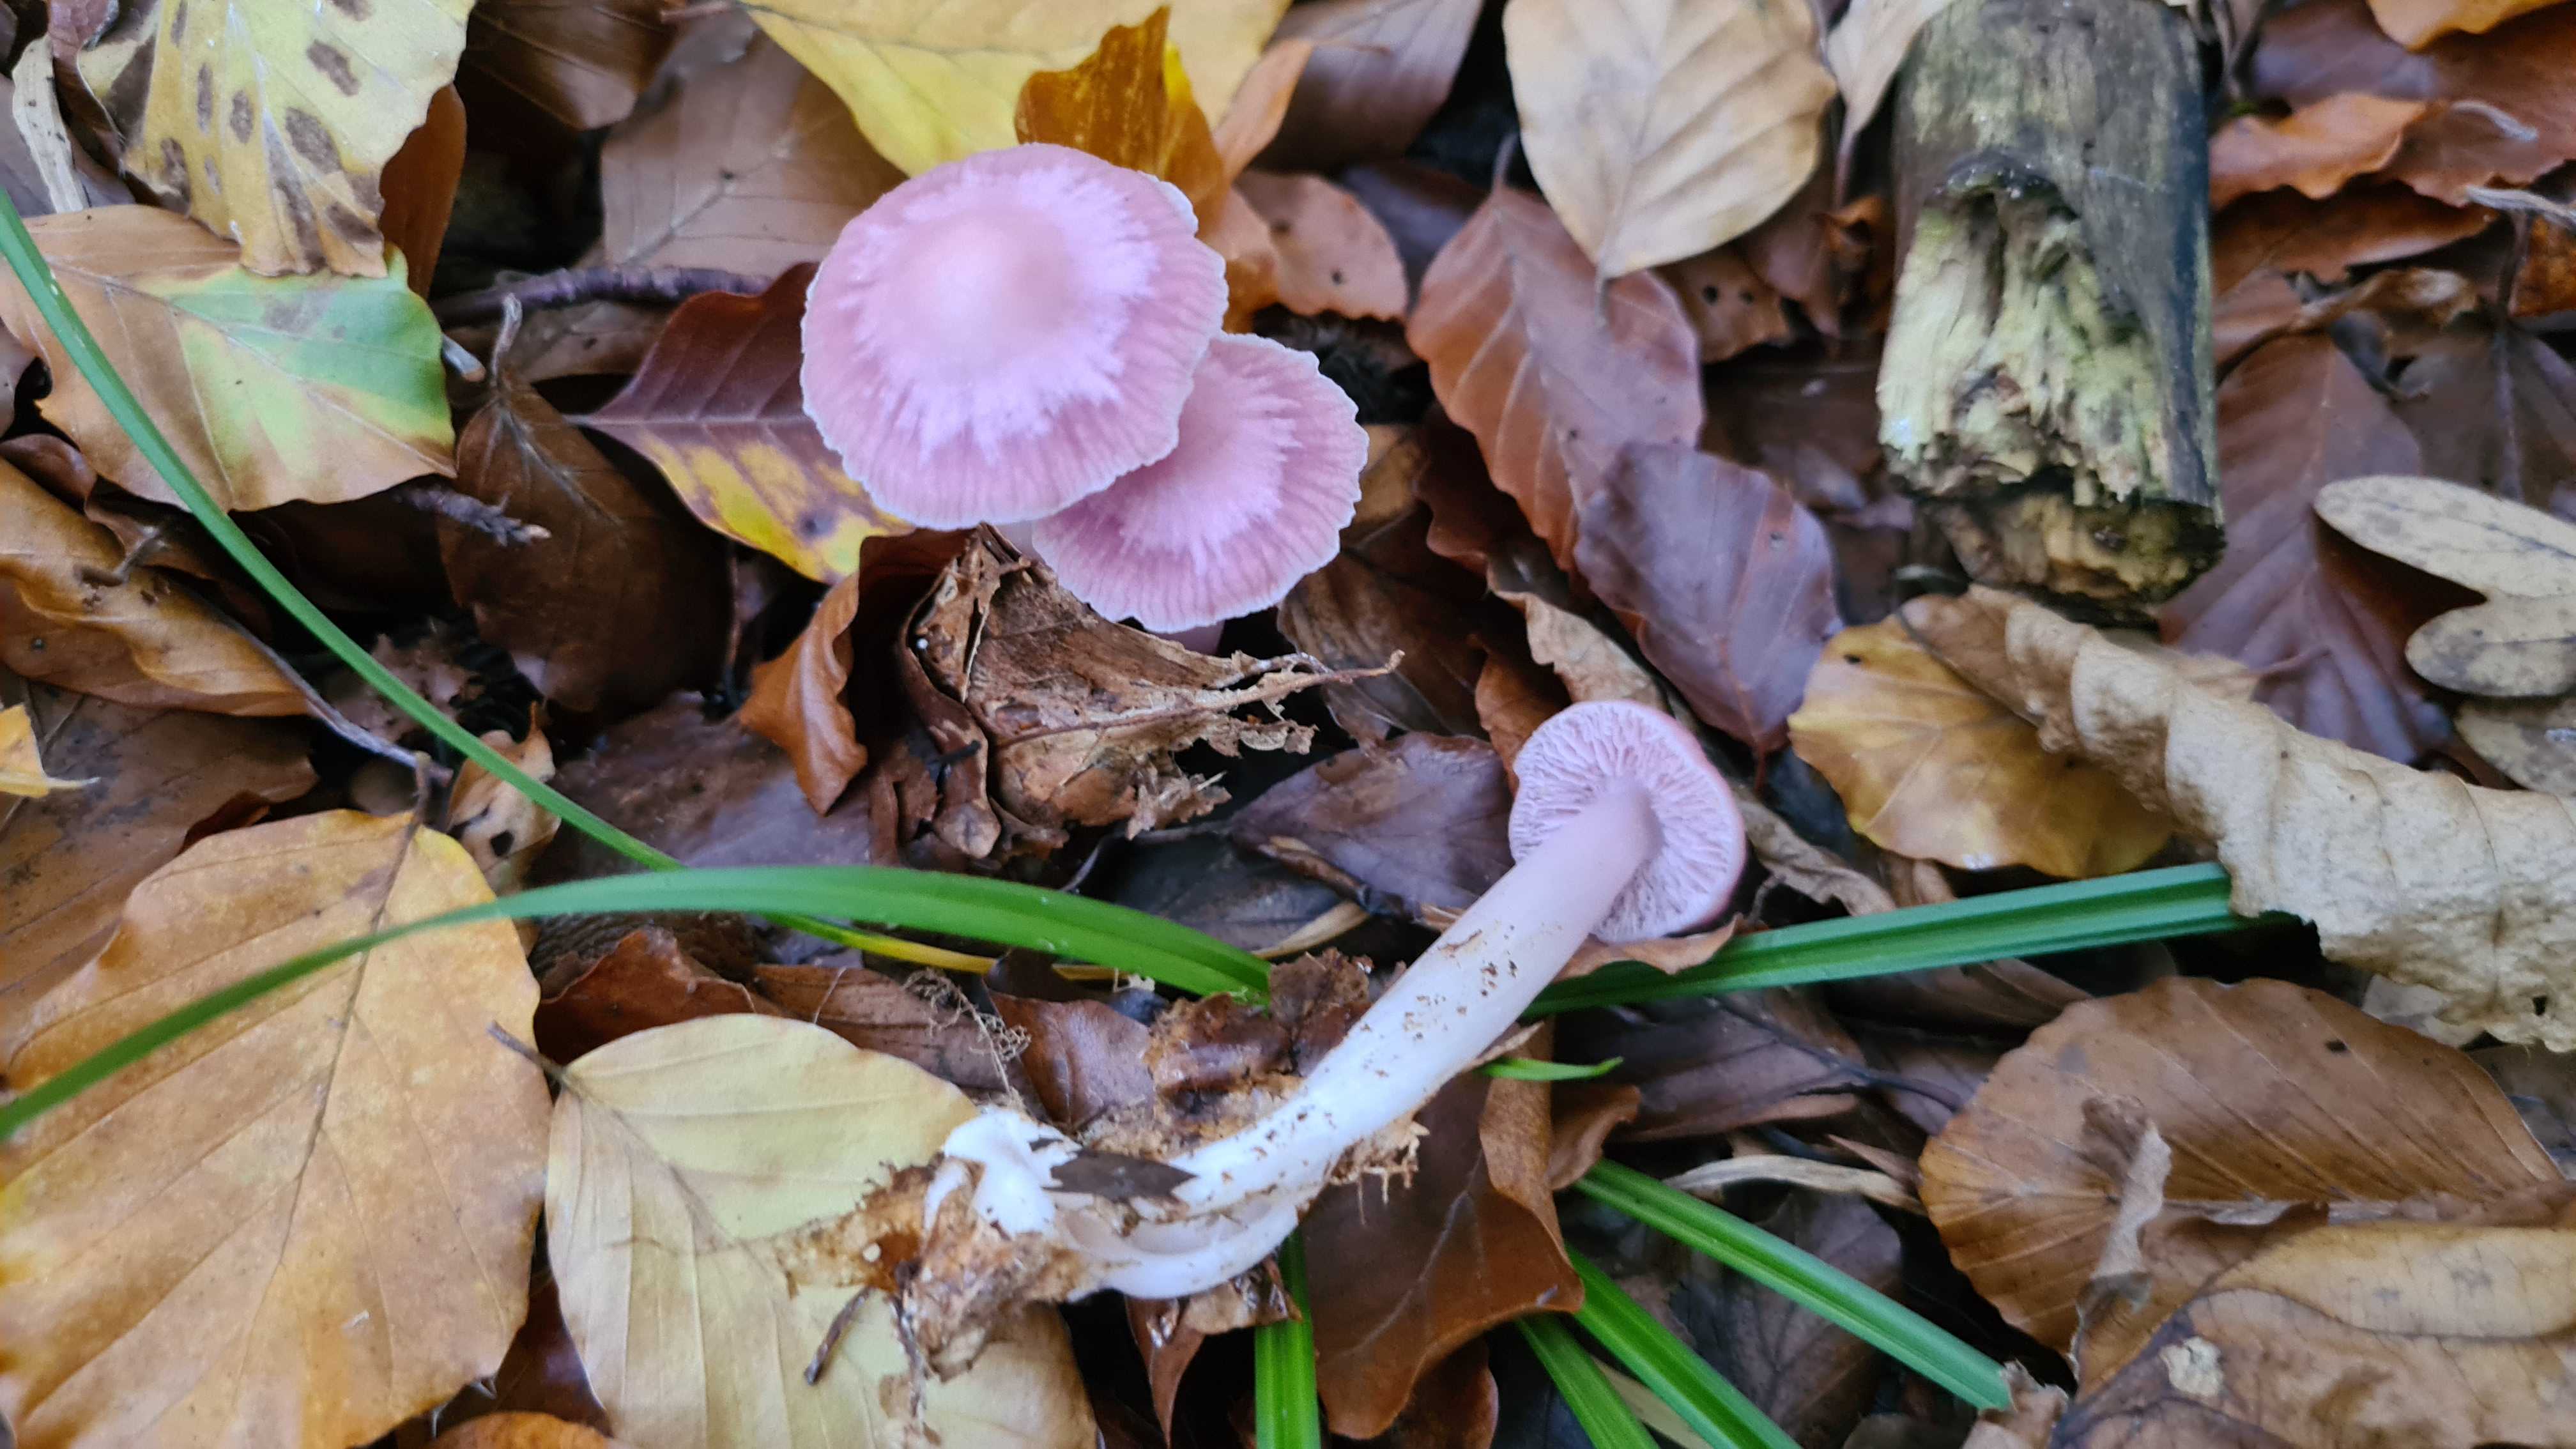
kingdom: Fungi
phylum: Basidiomycota
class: Agaricomycetes
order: Agaricales
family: Mycenaceae
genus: Mycena
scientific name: Mycena rosea
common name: rosa huesvamp
